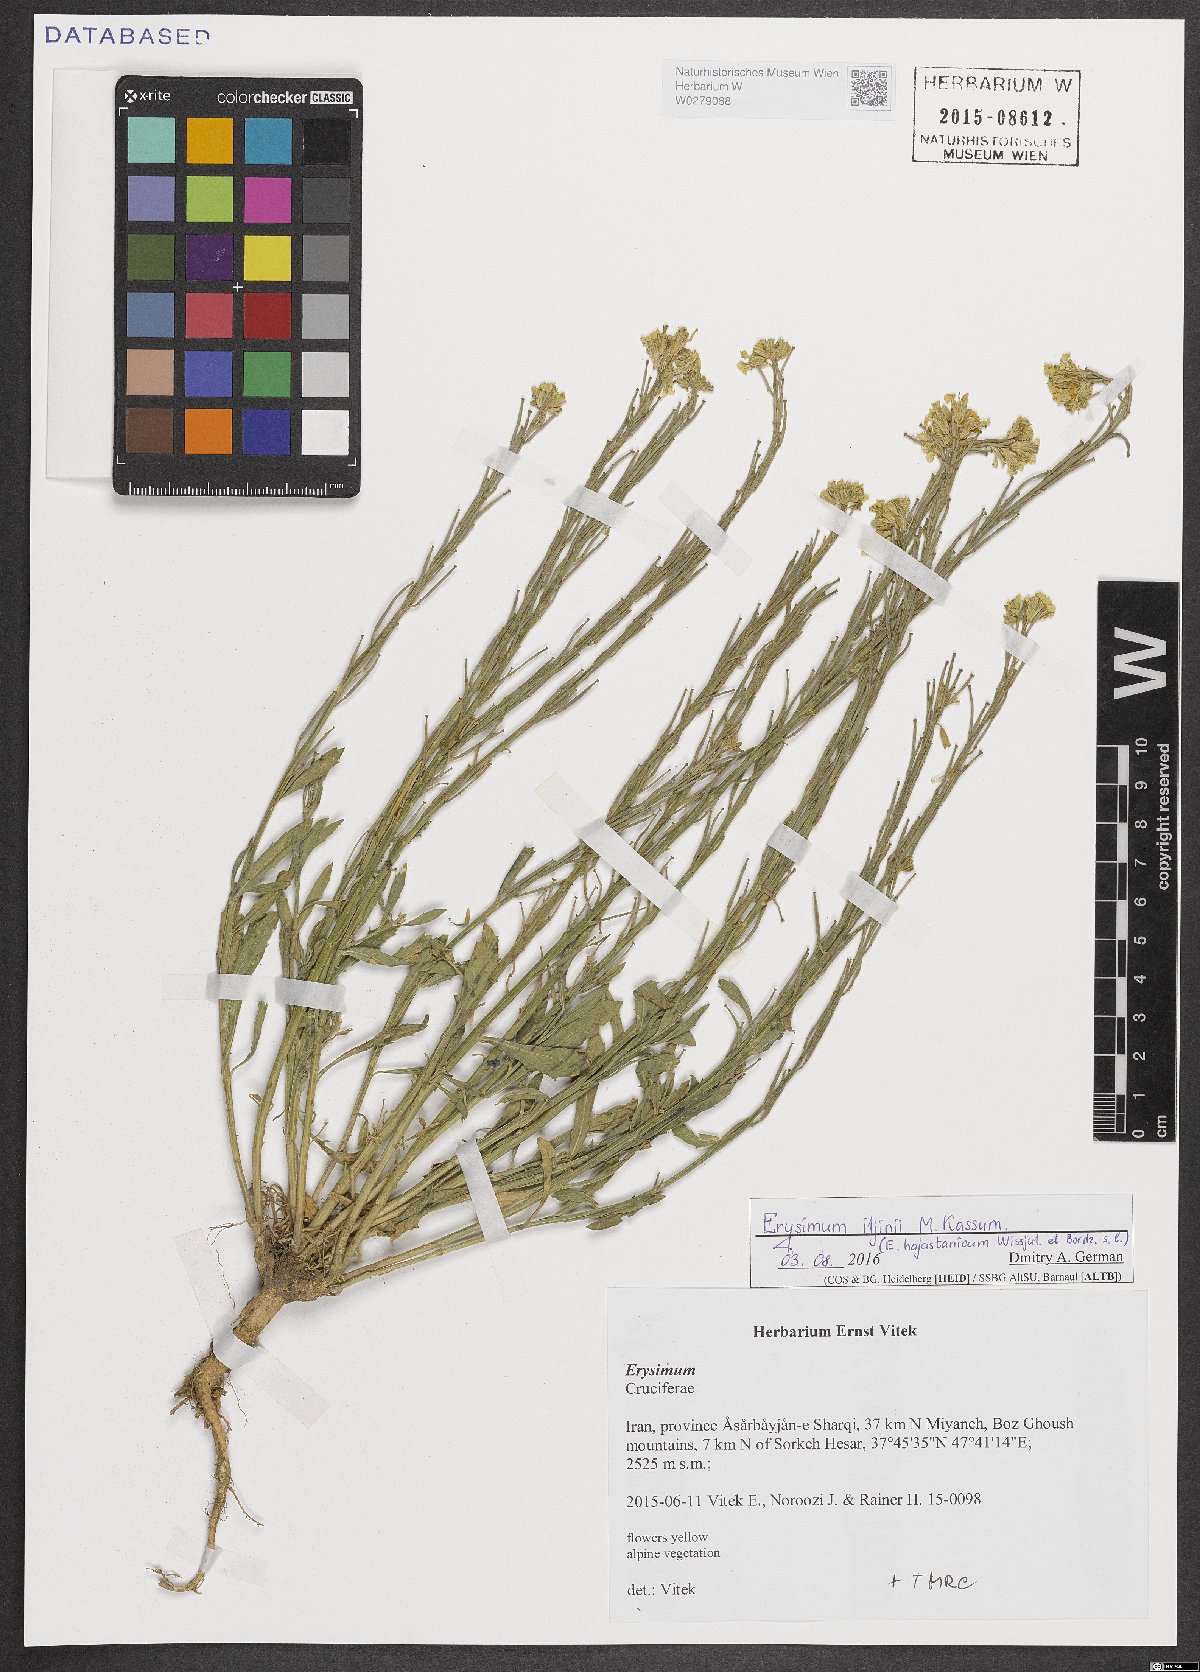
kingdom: Plantae
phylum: Tracheophyta
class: Magnoliopsida
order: Brassicales
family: Brassicaceae
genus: Erysimum
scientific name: Erysimum chazarjurti
